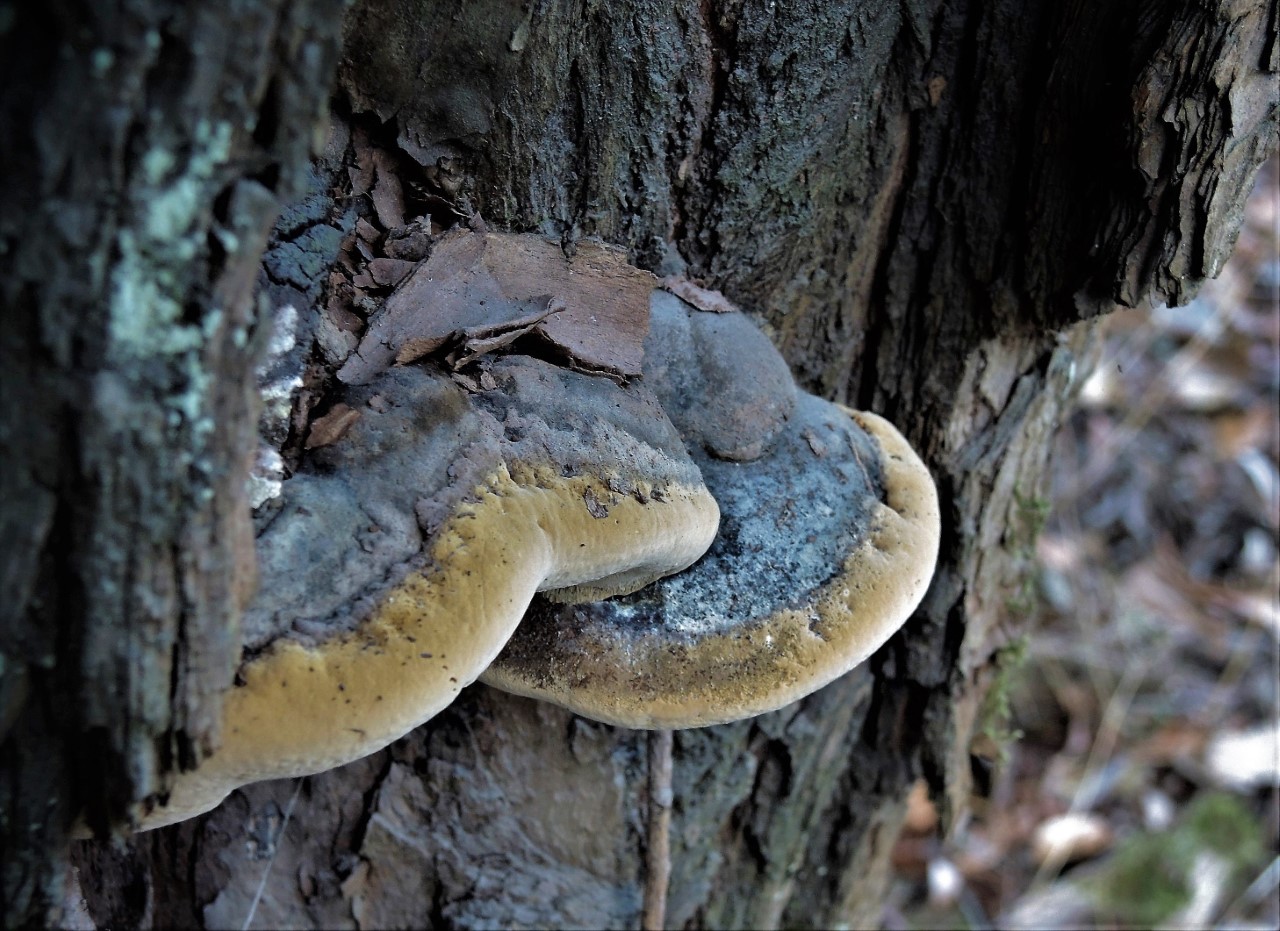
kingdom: Fungi
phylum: Basidiomycota
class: Agaricomycetes
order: Hymenochaetales
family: Hymenochaetaceae
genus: Phellinus
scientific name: Phellinus igniarius
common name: almindelig ildporesvamp
